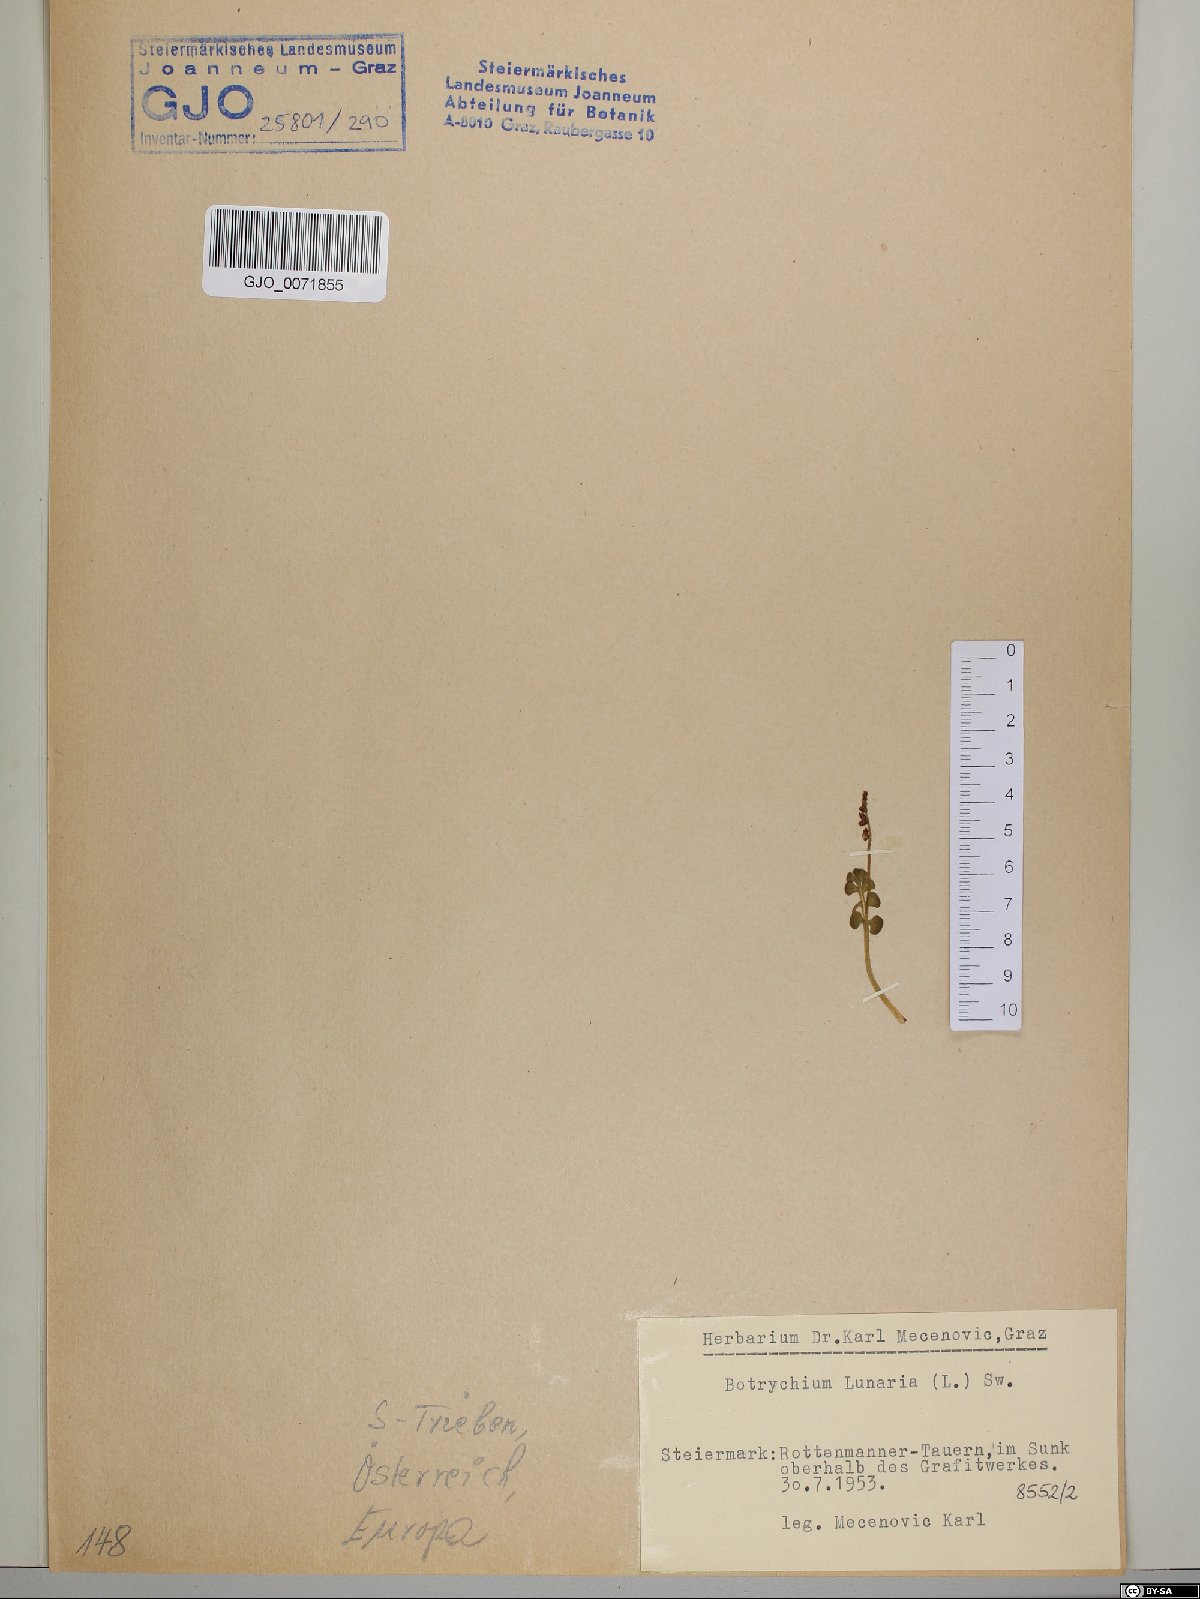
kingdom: Plantae
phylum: Tracheophyta
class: Polypodiopsida
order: Ophioglossales
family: Ophioglossaceae
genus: Botrychium
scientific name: Botrychium lunaria
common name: Moonwort
